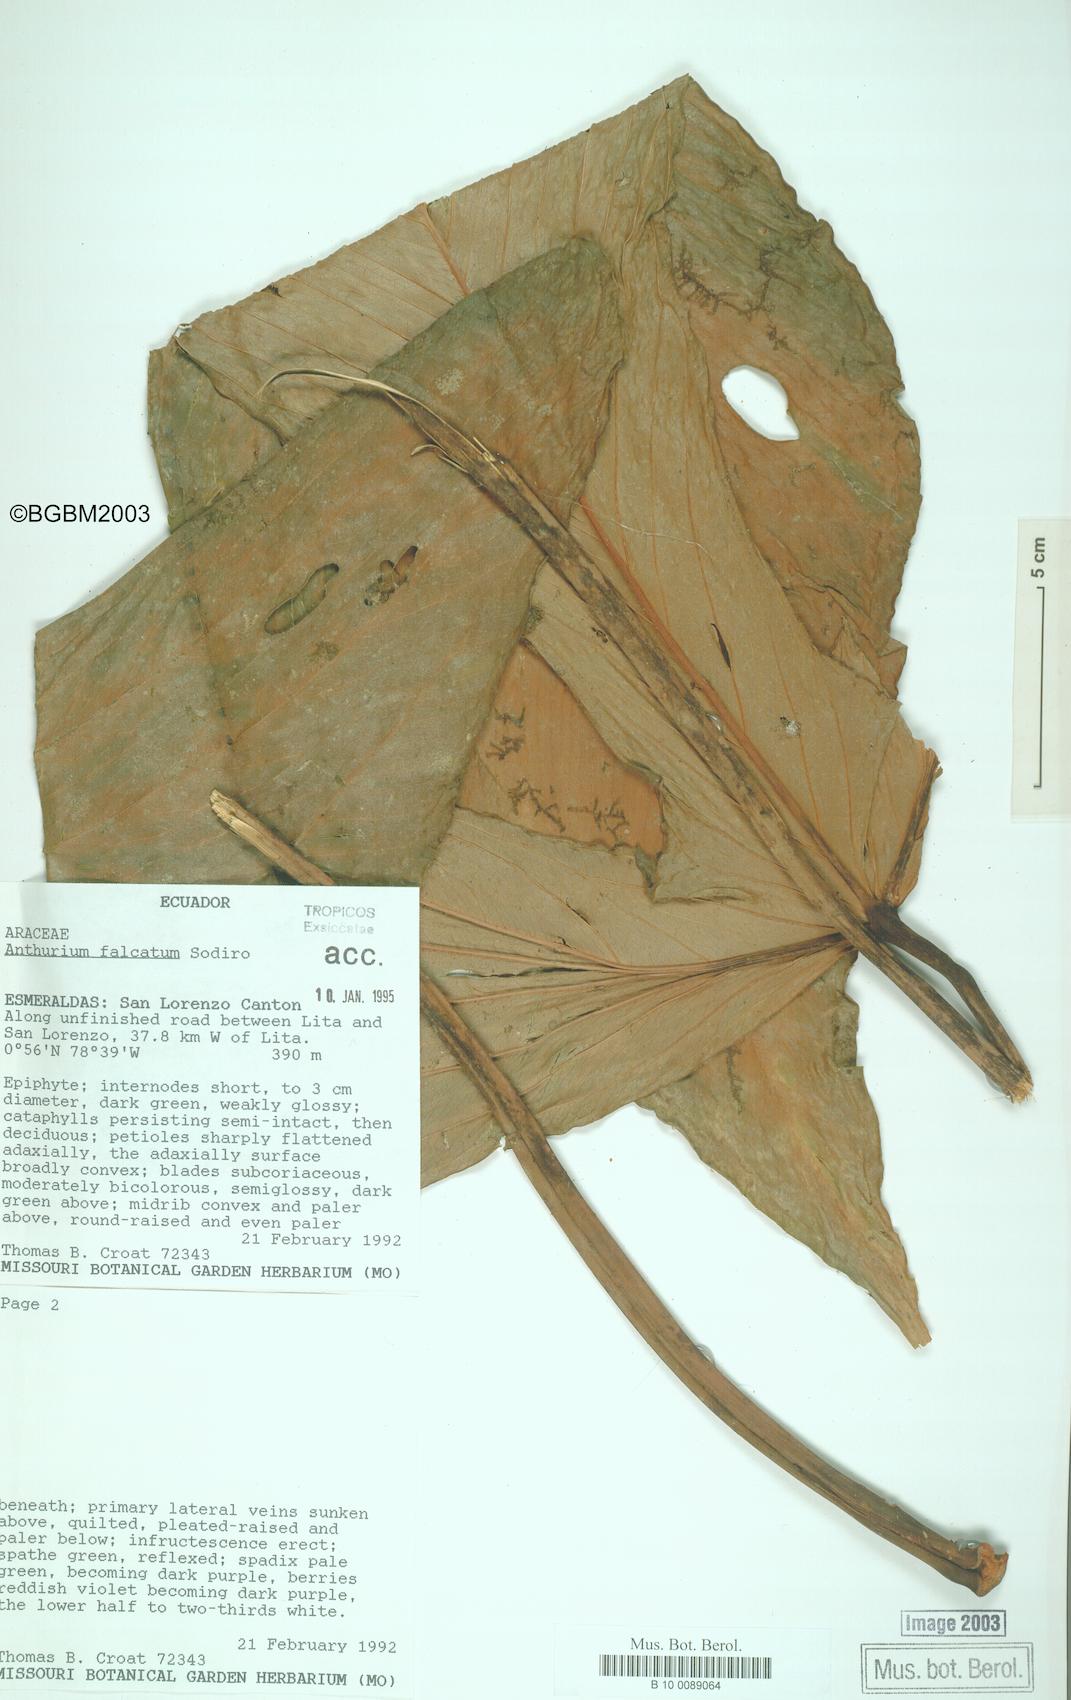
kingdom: Plantae
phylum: Tracheophyta
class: Liliopsida
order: Alismatales
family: Araceae
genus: Anthurium
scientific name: Anthurium rimbachii
